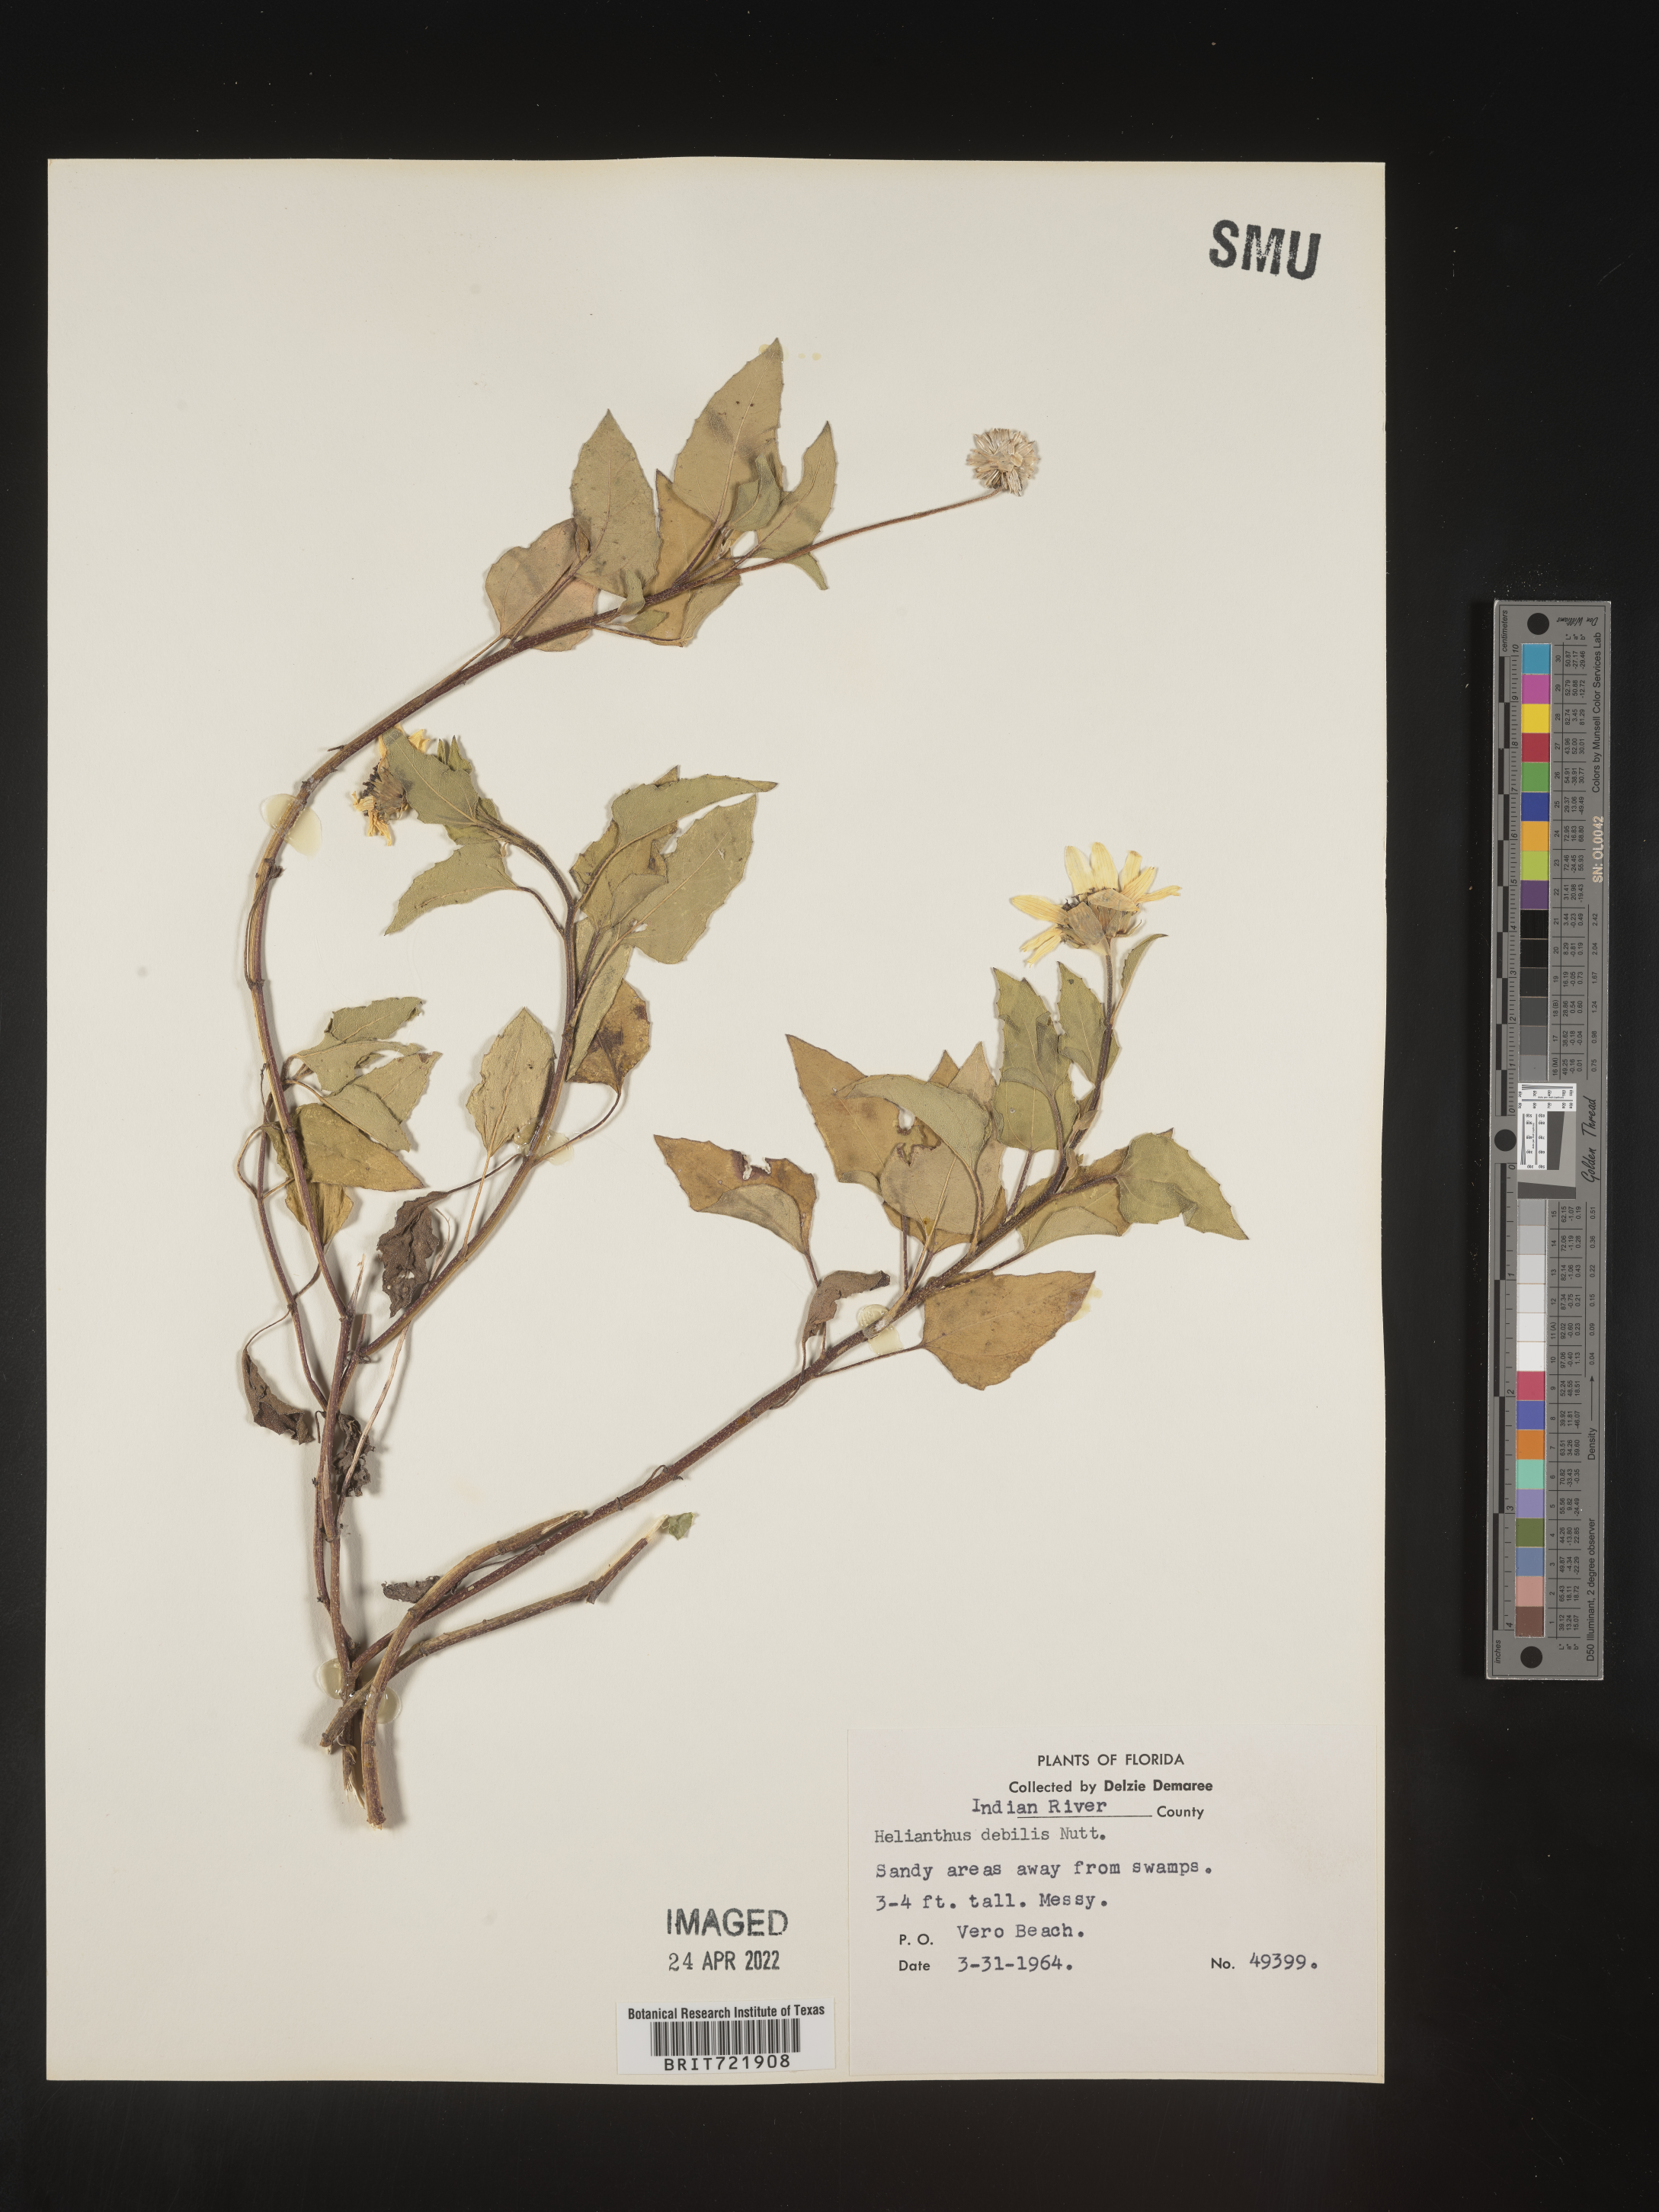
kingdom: Plantae
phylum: Tracheophyta
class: Magnoliopsida
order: Asterales
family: Asteraceae
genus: Helianthus
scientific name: Helianthus debilis
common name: Weak sunflower
